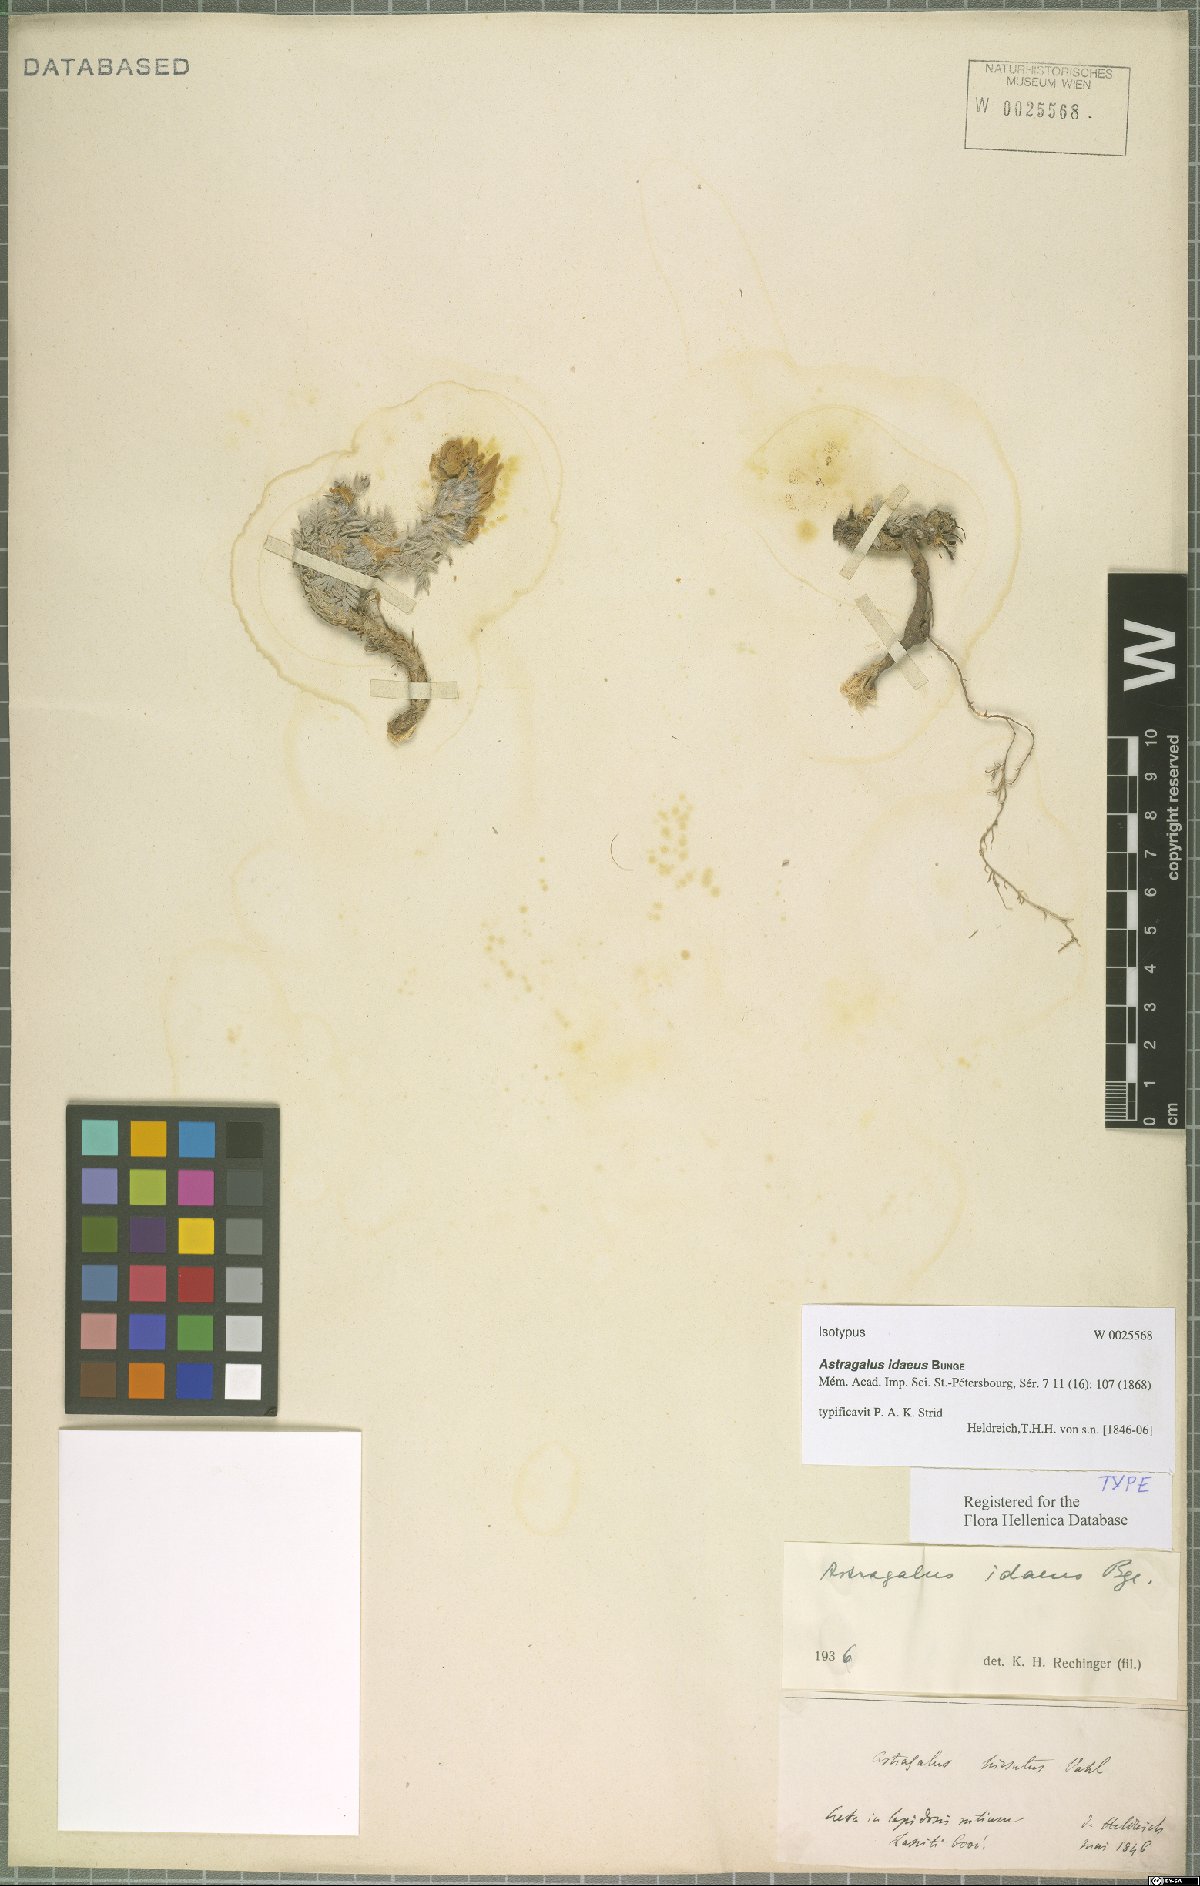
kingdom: Plantae
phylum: Tracheophyta
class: Magnoliopsida
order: Fabales
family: Fabaceae
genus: Astragalus
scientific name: Astragalus idaeus
